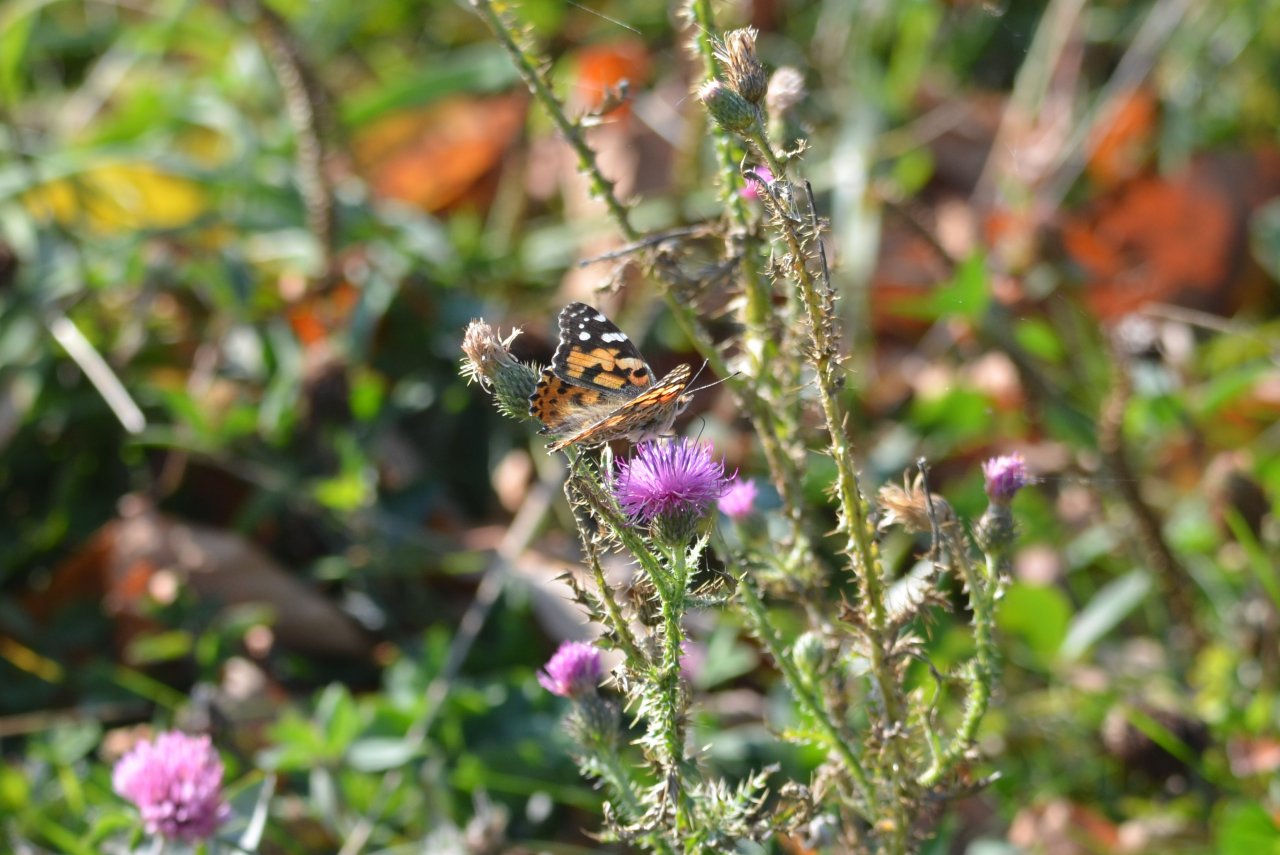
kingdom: Animalia
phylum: Arthropoda
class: Insecta
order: Lepidoptera
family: Nymphalidae
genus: Vanessa
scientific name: Vanessa cardui
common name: Painted Lady
